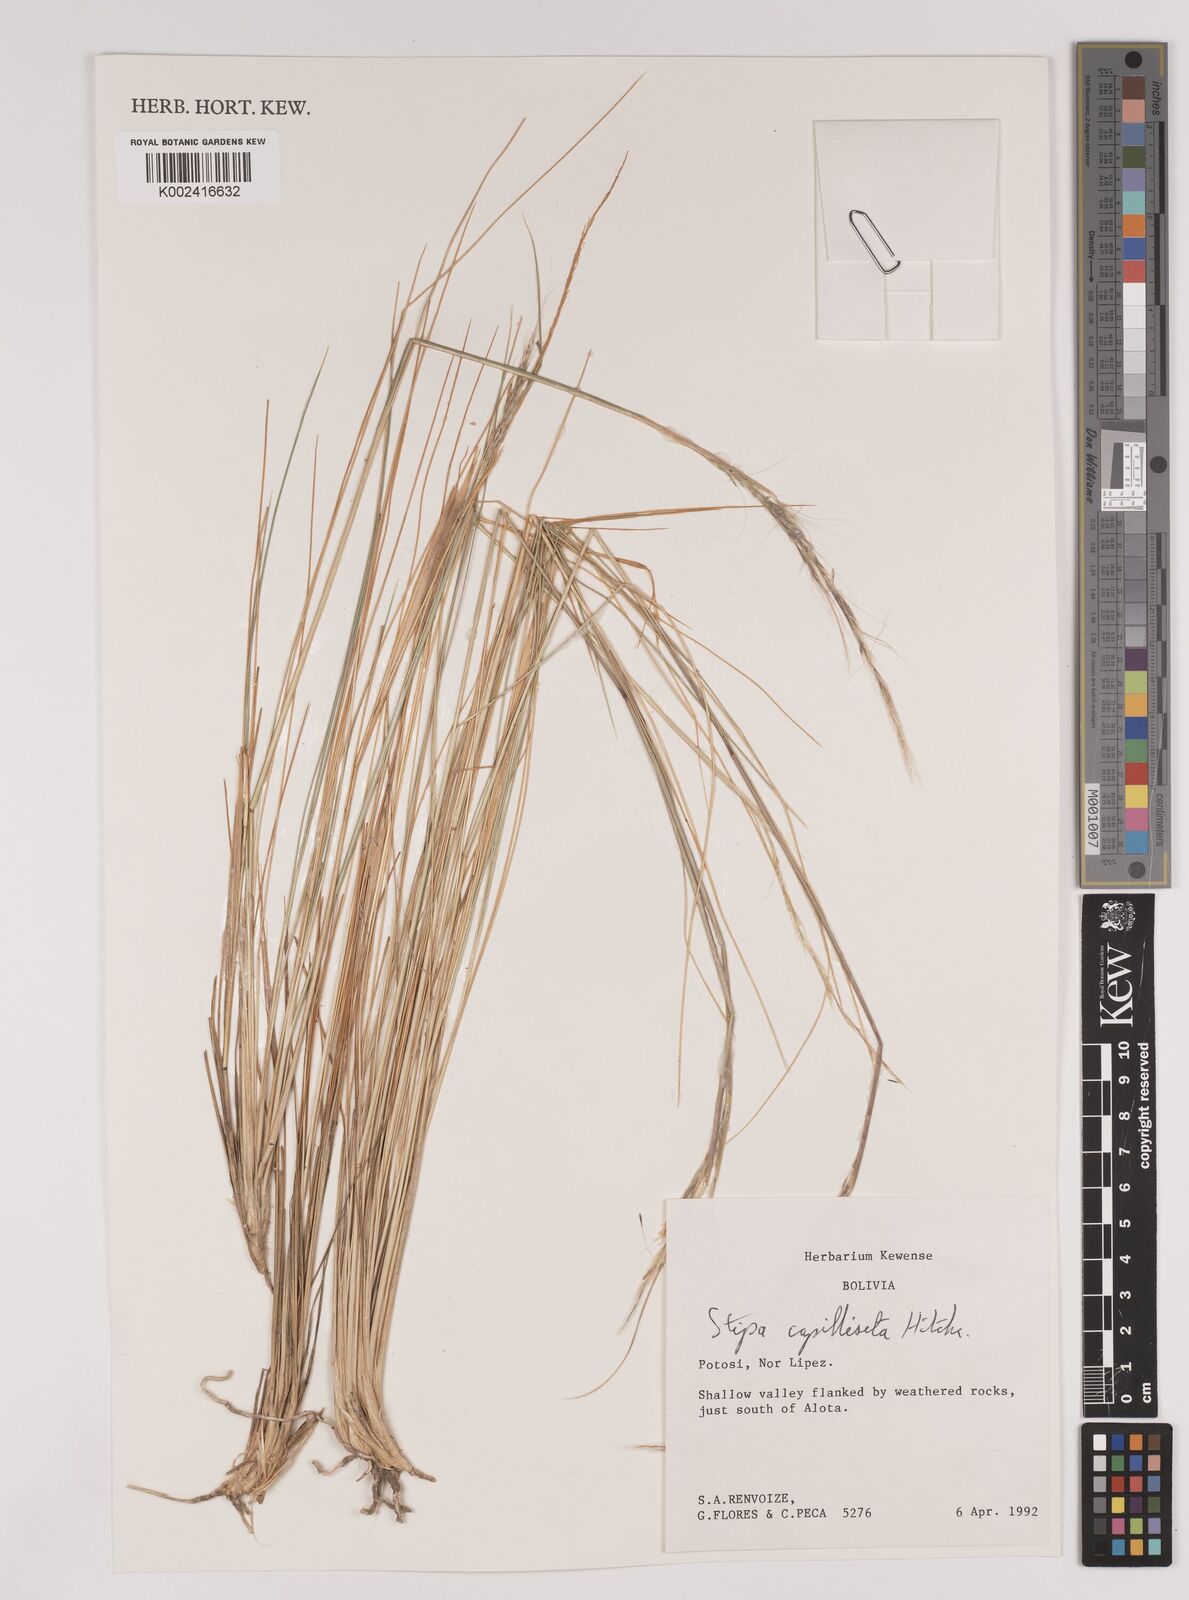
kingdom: Plantae
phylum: Tracheophyta
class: Liliopsida
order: Poales
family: Poaceae
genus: Jarava
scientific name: Jarava leptostachya
